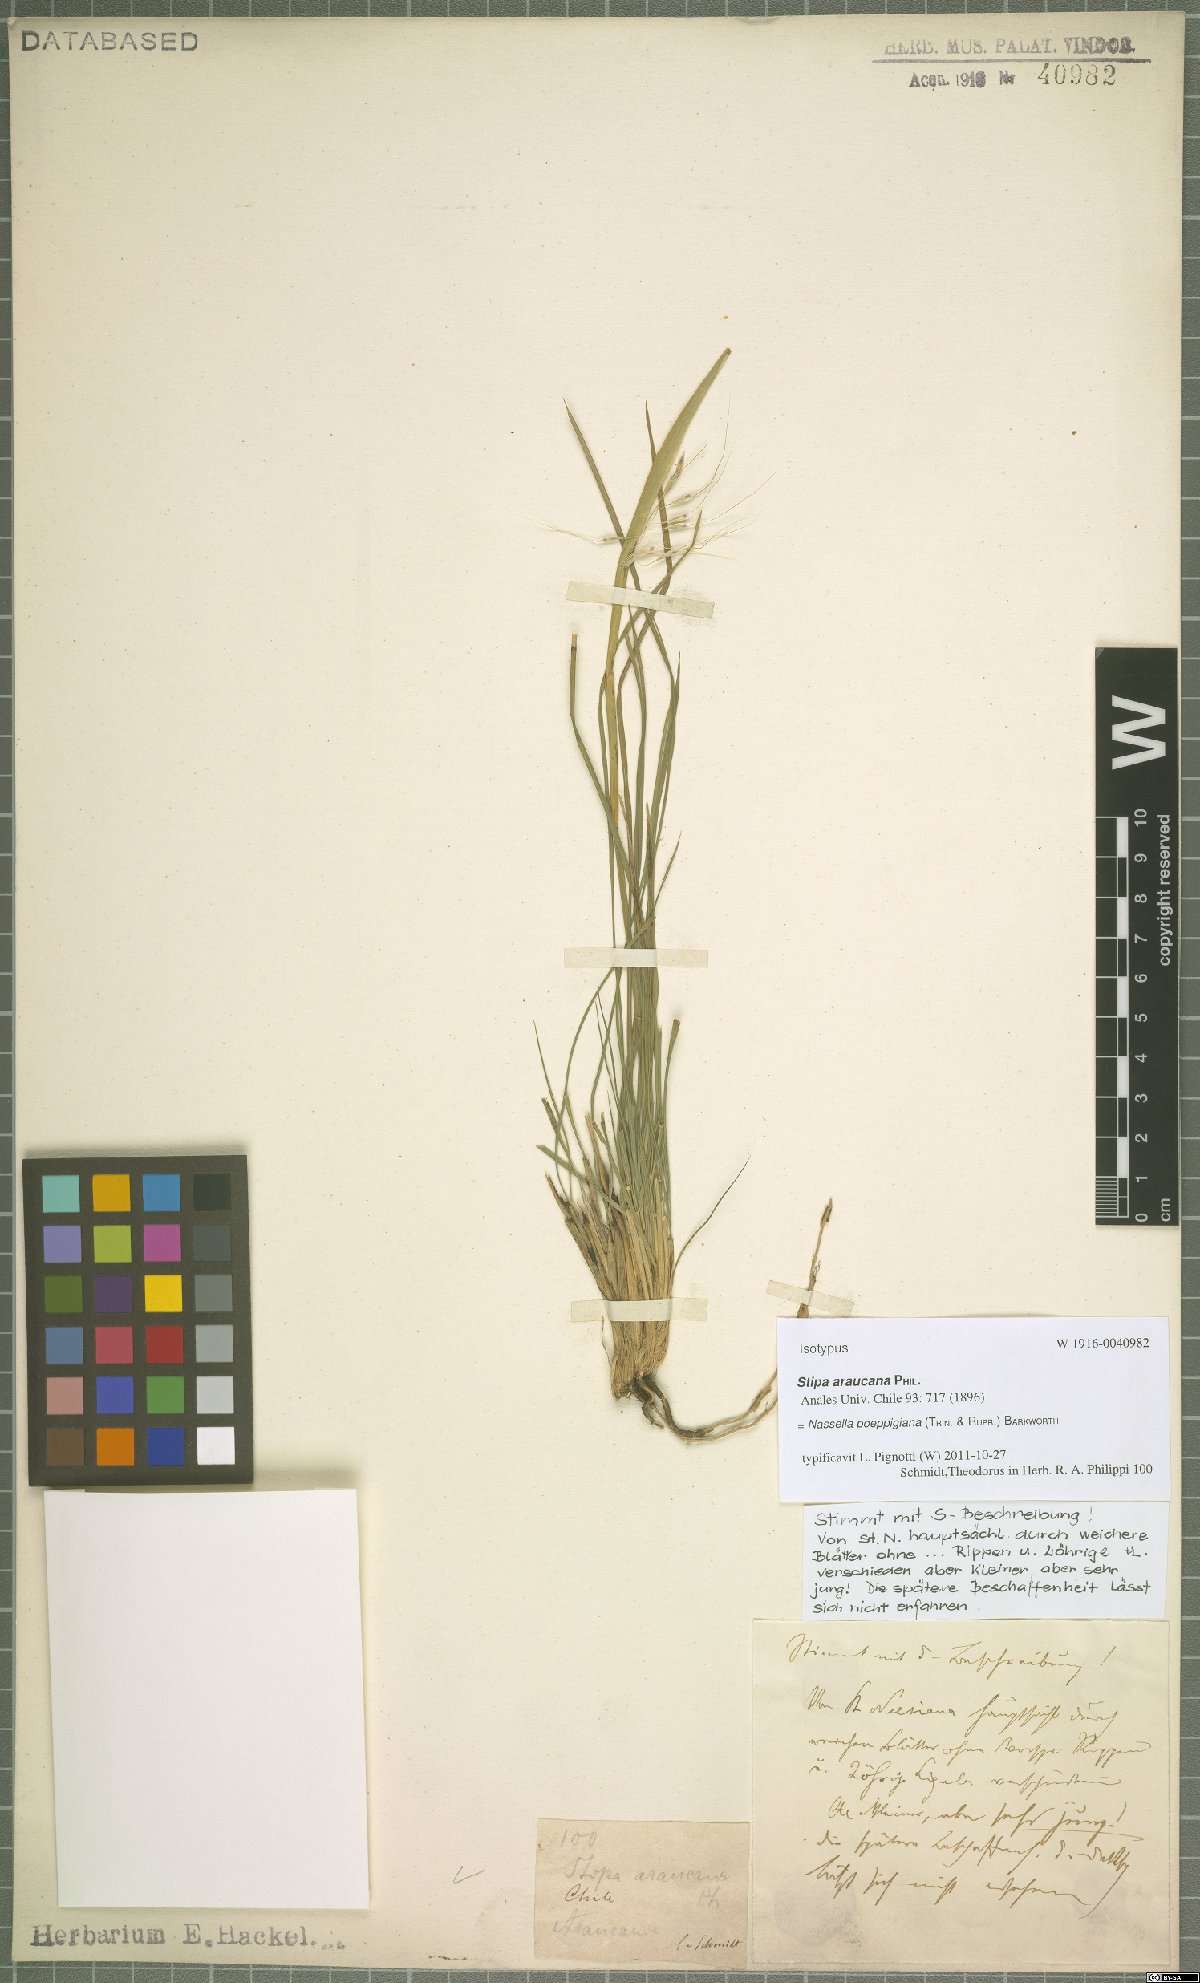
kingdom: Plantae
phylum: Tracheophyta
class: Liliopsida
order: Poales
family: Poaceae
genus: Nassella
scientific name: Nassella poeppigiana
